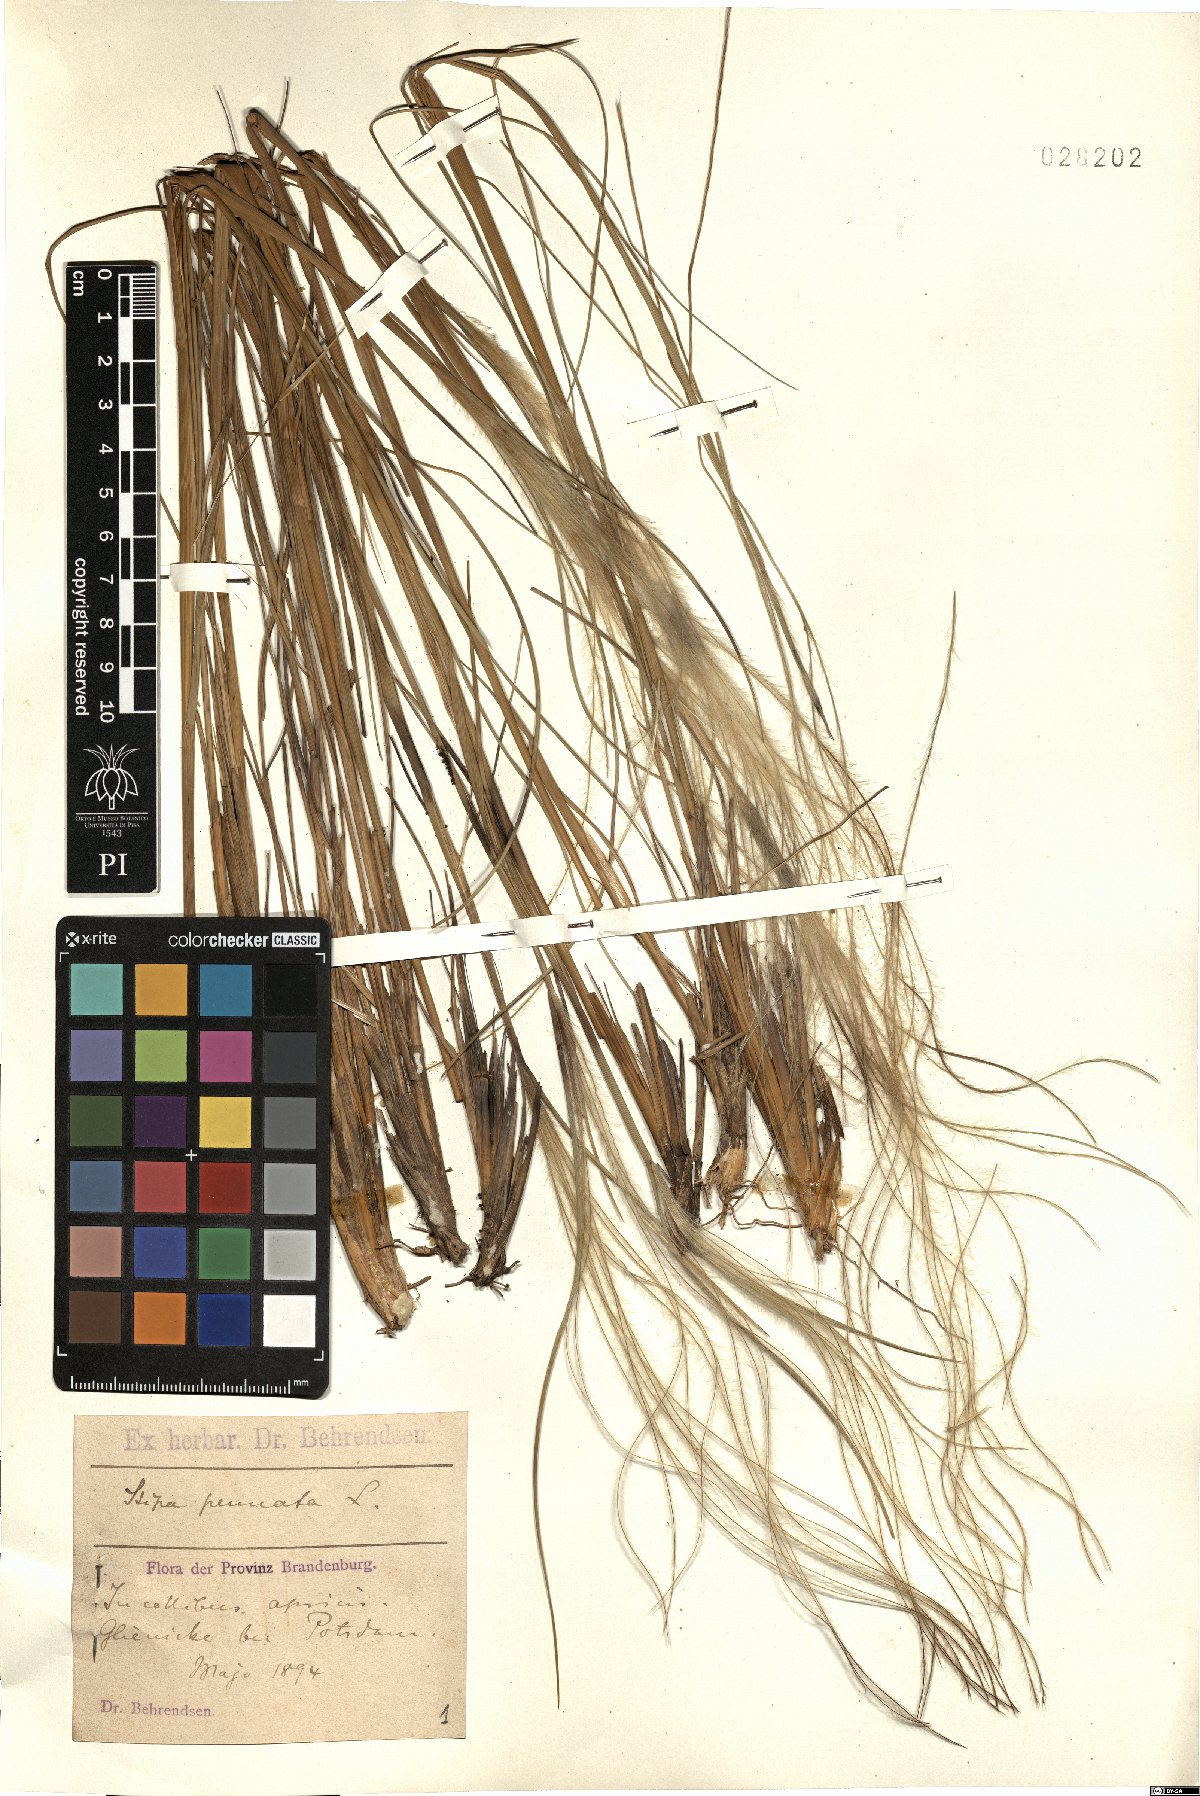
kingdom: Plantae
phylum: Tracheophyta
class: Liliopsida
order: Poales
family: Poaceae
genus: Stipa
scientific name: Stipa pennata
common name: European feather grass
